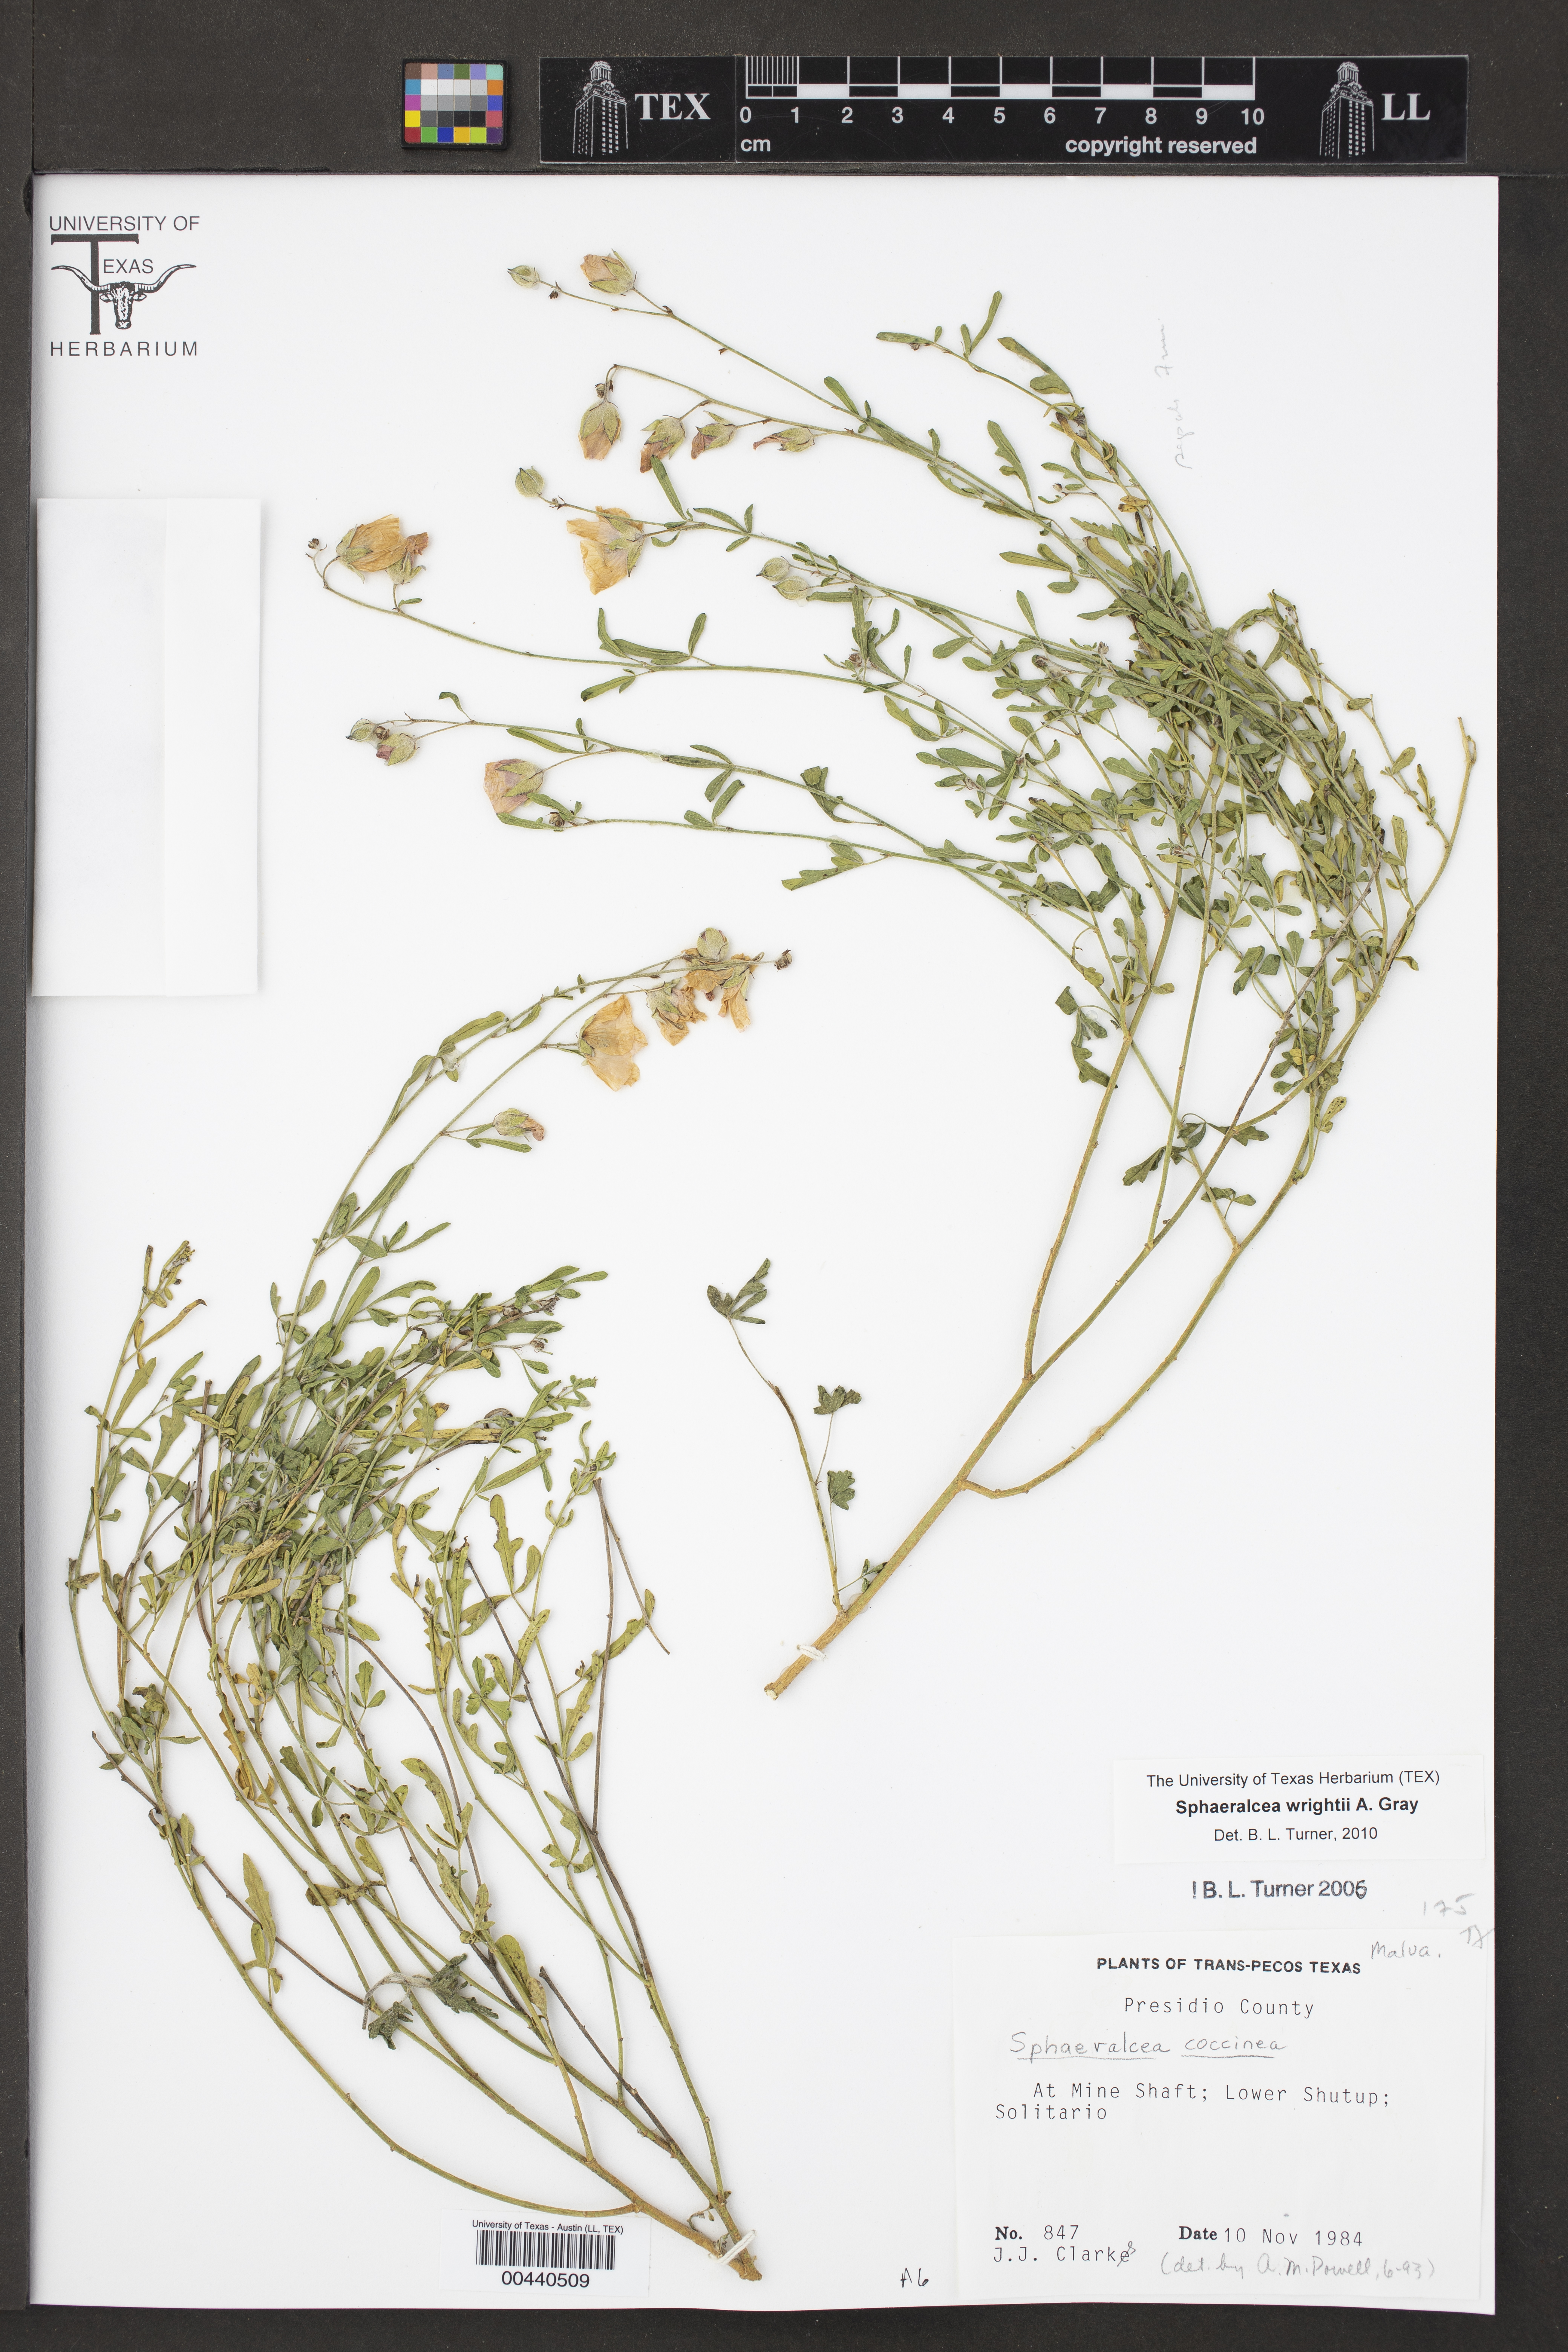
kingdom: Plantae
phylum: Tracheophyta
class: Magnoliopsida
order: Malvales
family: Malvaceae
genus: Sphaeralcea
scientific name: Sphaeralcea coccinea
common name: Moss-rose
